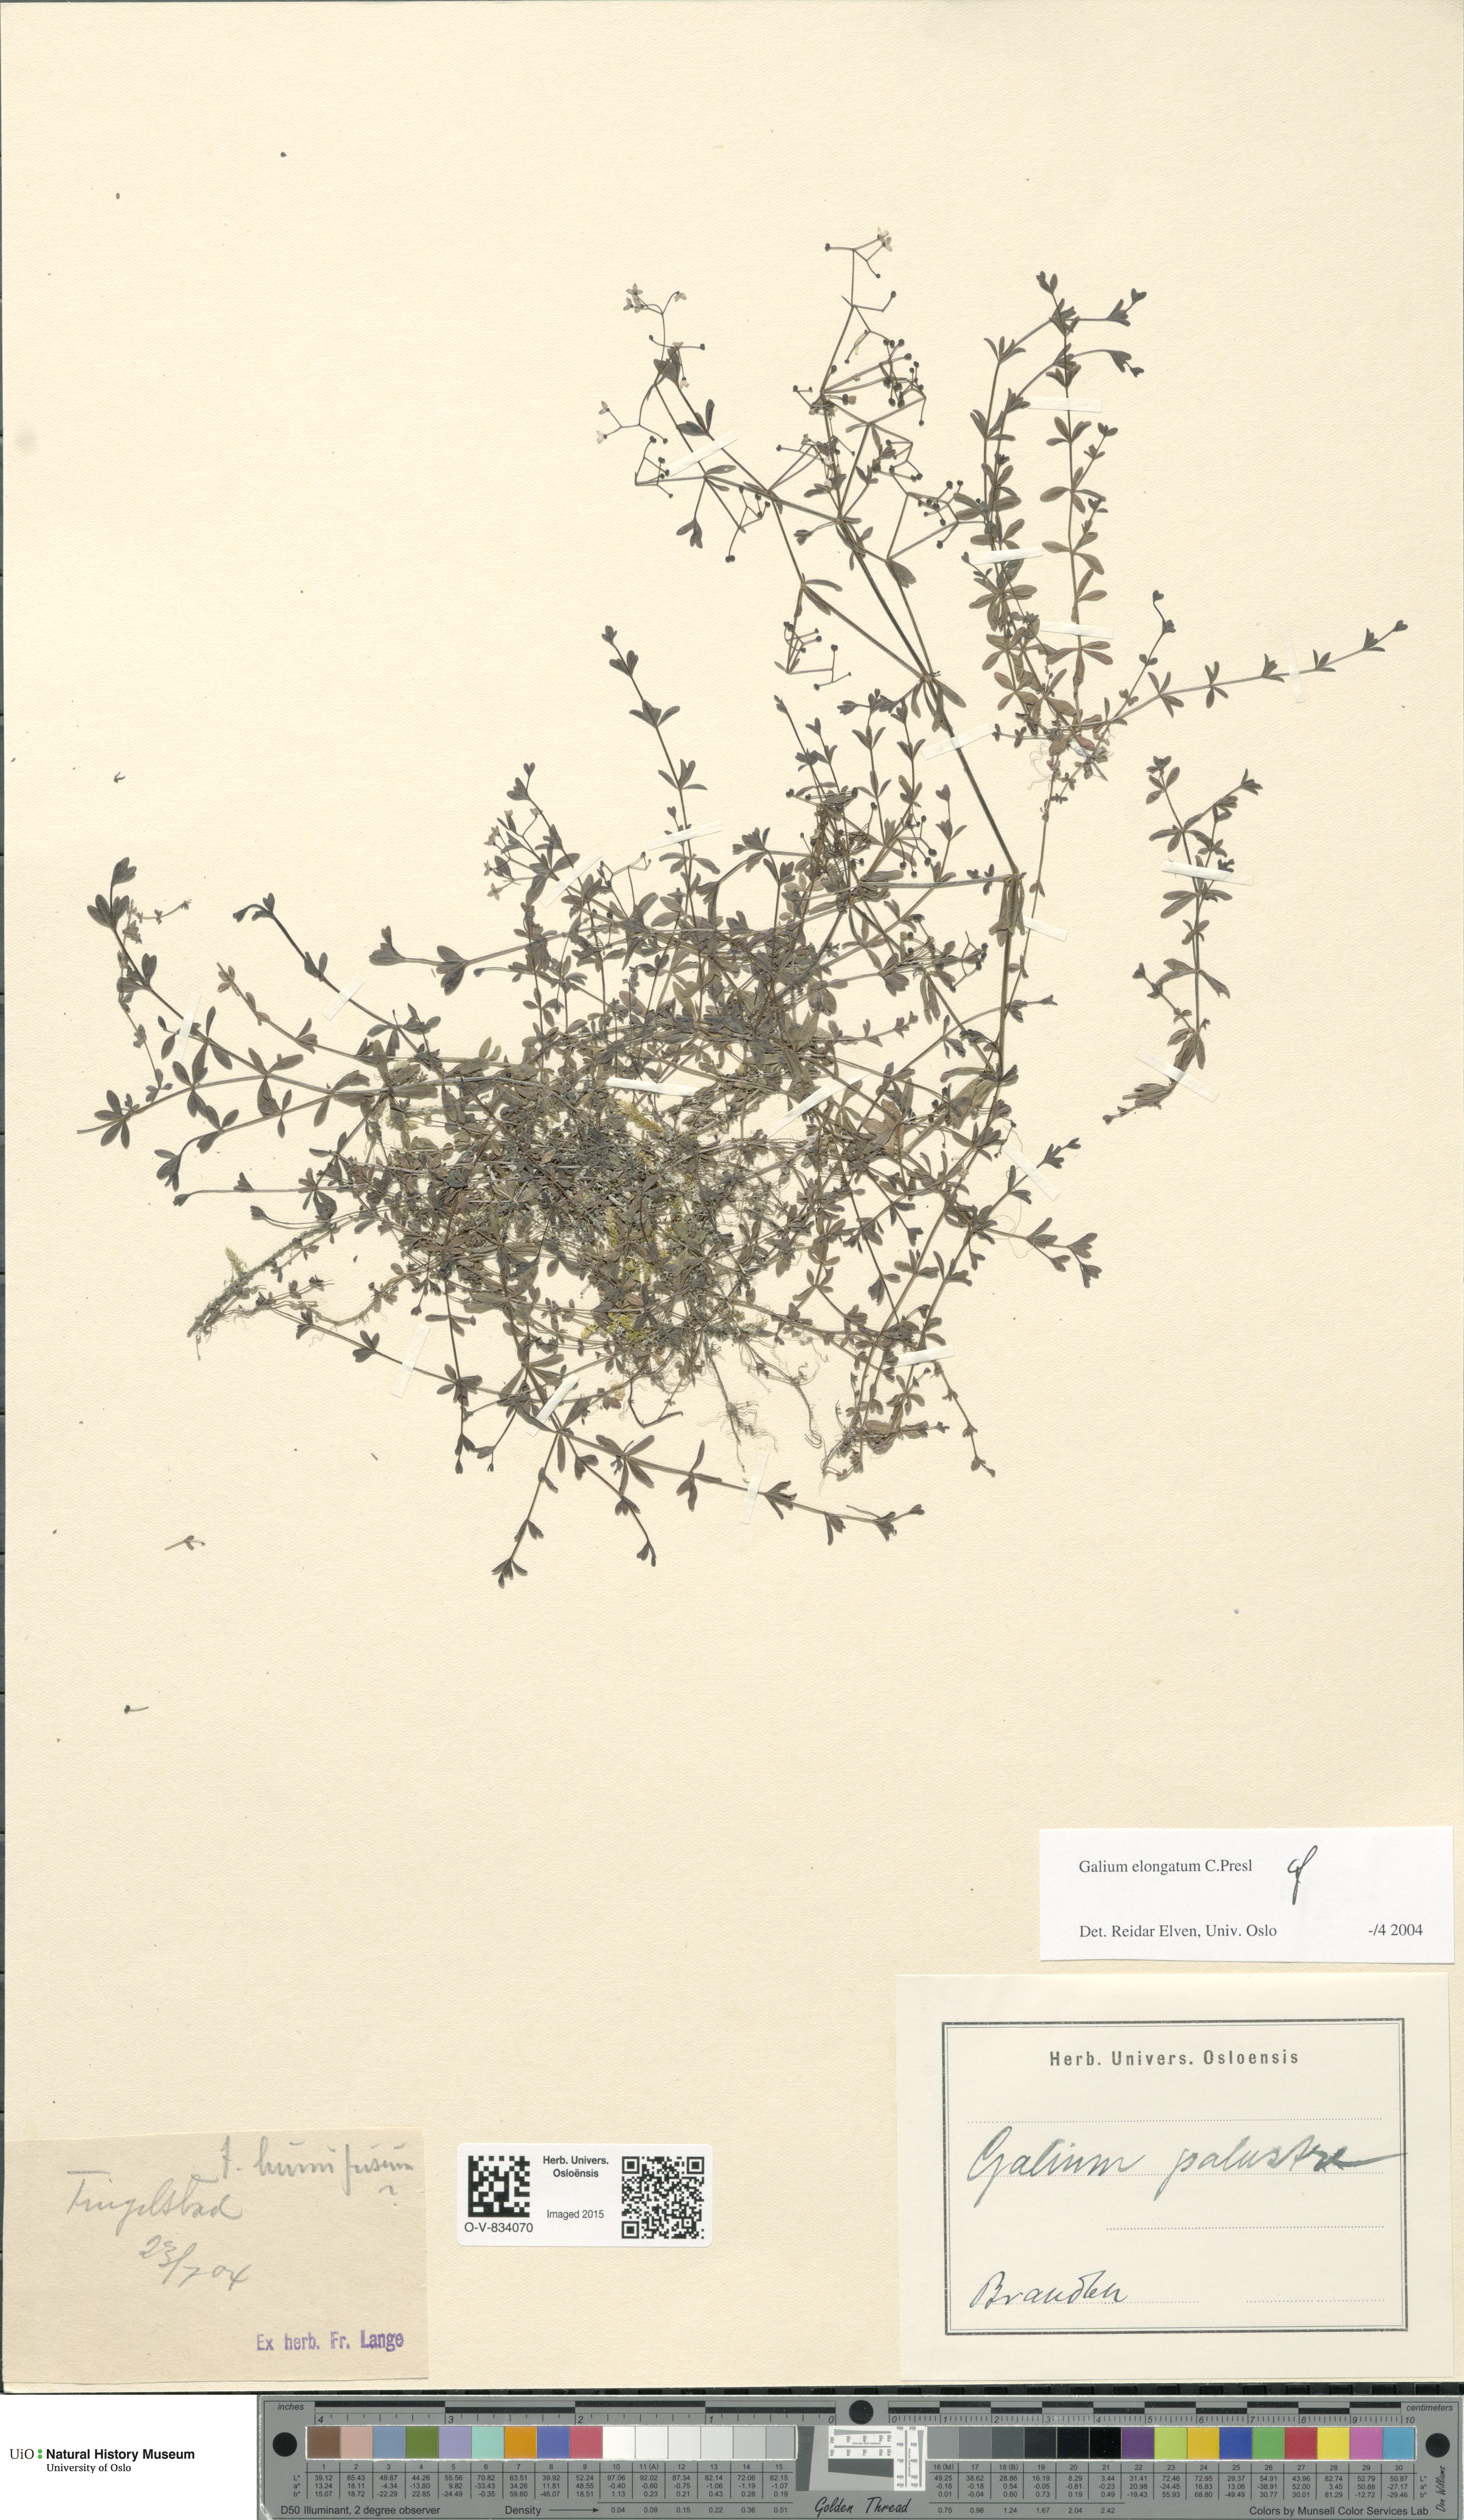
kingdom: Plantae
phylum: Tracheophyta
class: Magnoliopsida
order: Gentianales
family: Rubiaceae
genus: Galium
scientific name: Galium elongatum
